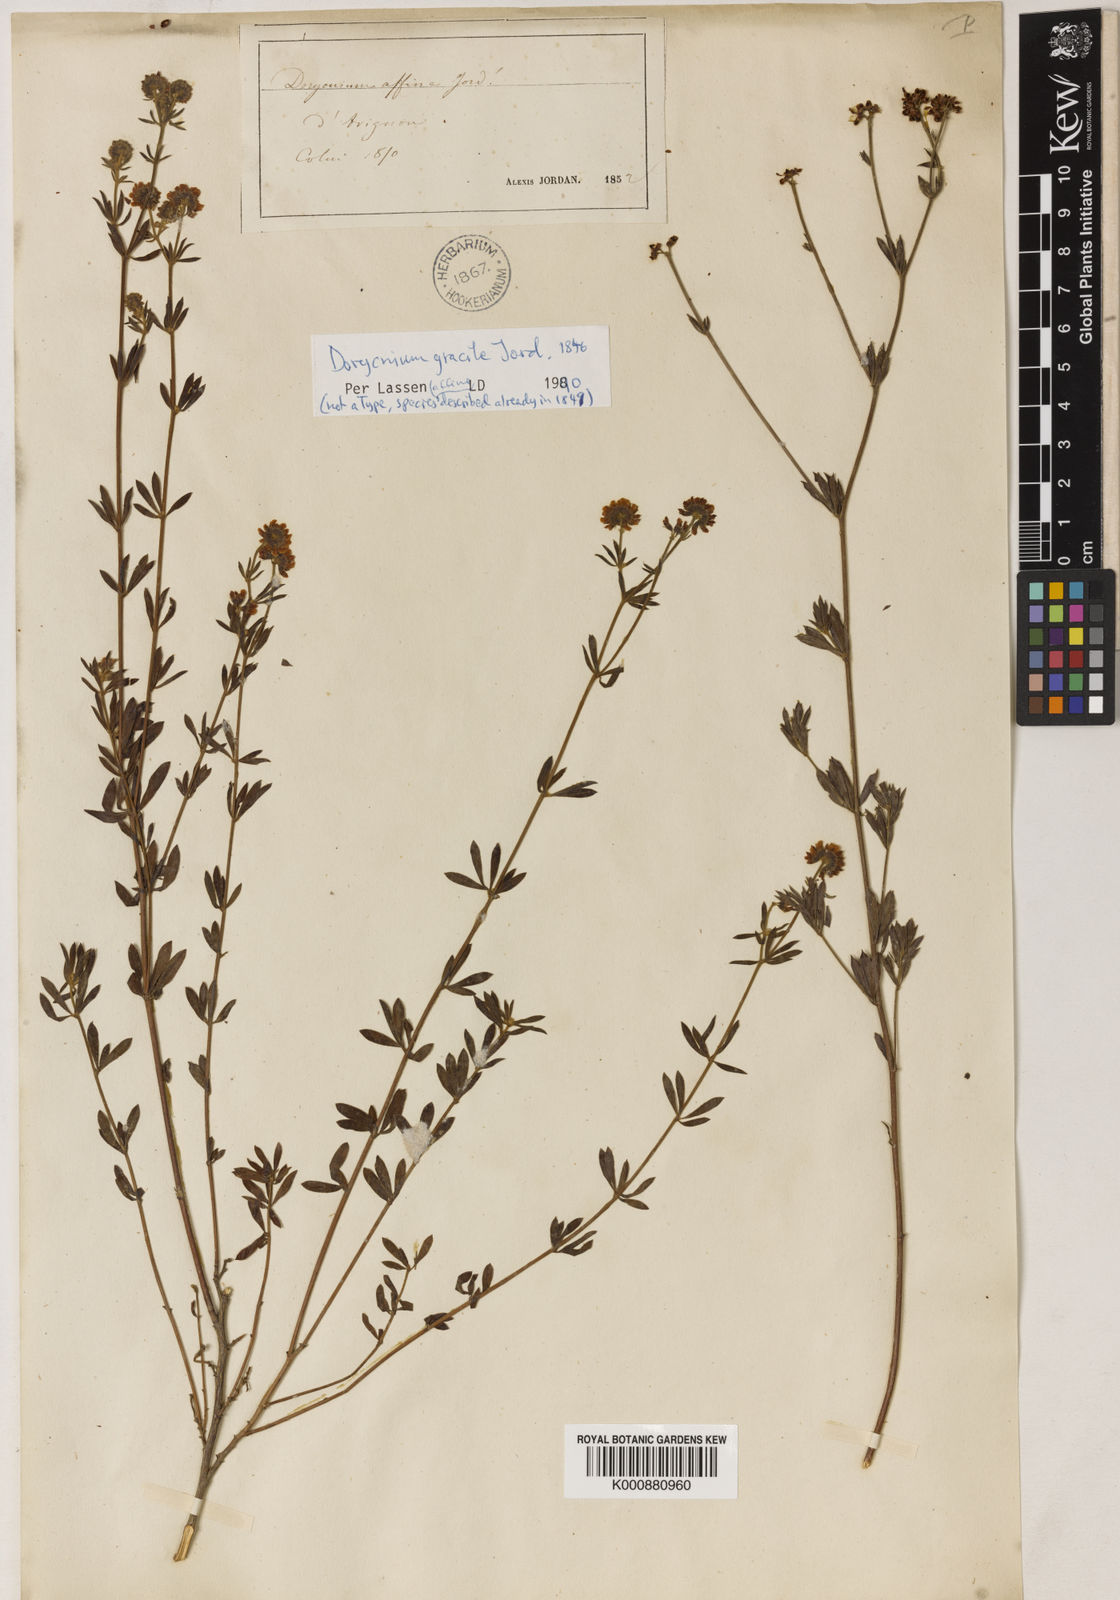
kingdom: Plantae
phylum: Tracheophyta
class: Magnoliopsida
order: Fabales
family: Fabaceae
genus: Lotus
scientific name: Lotus jordanii
